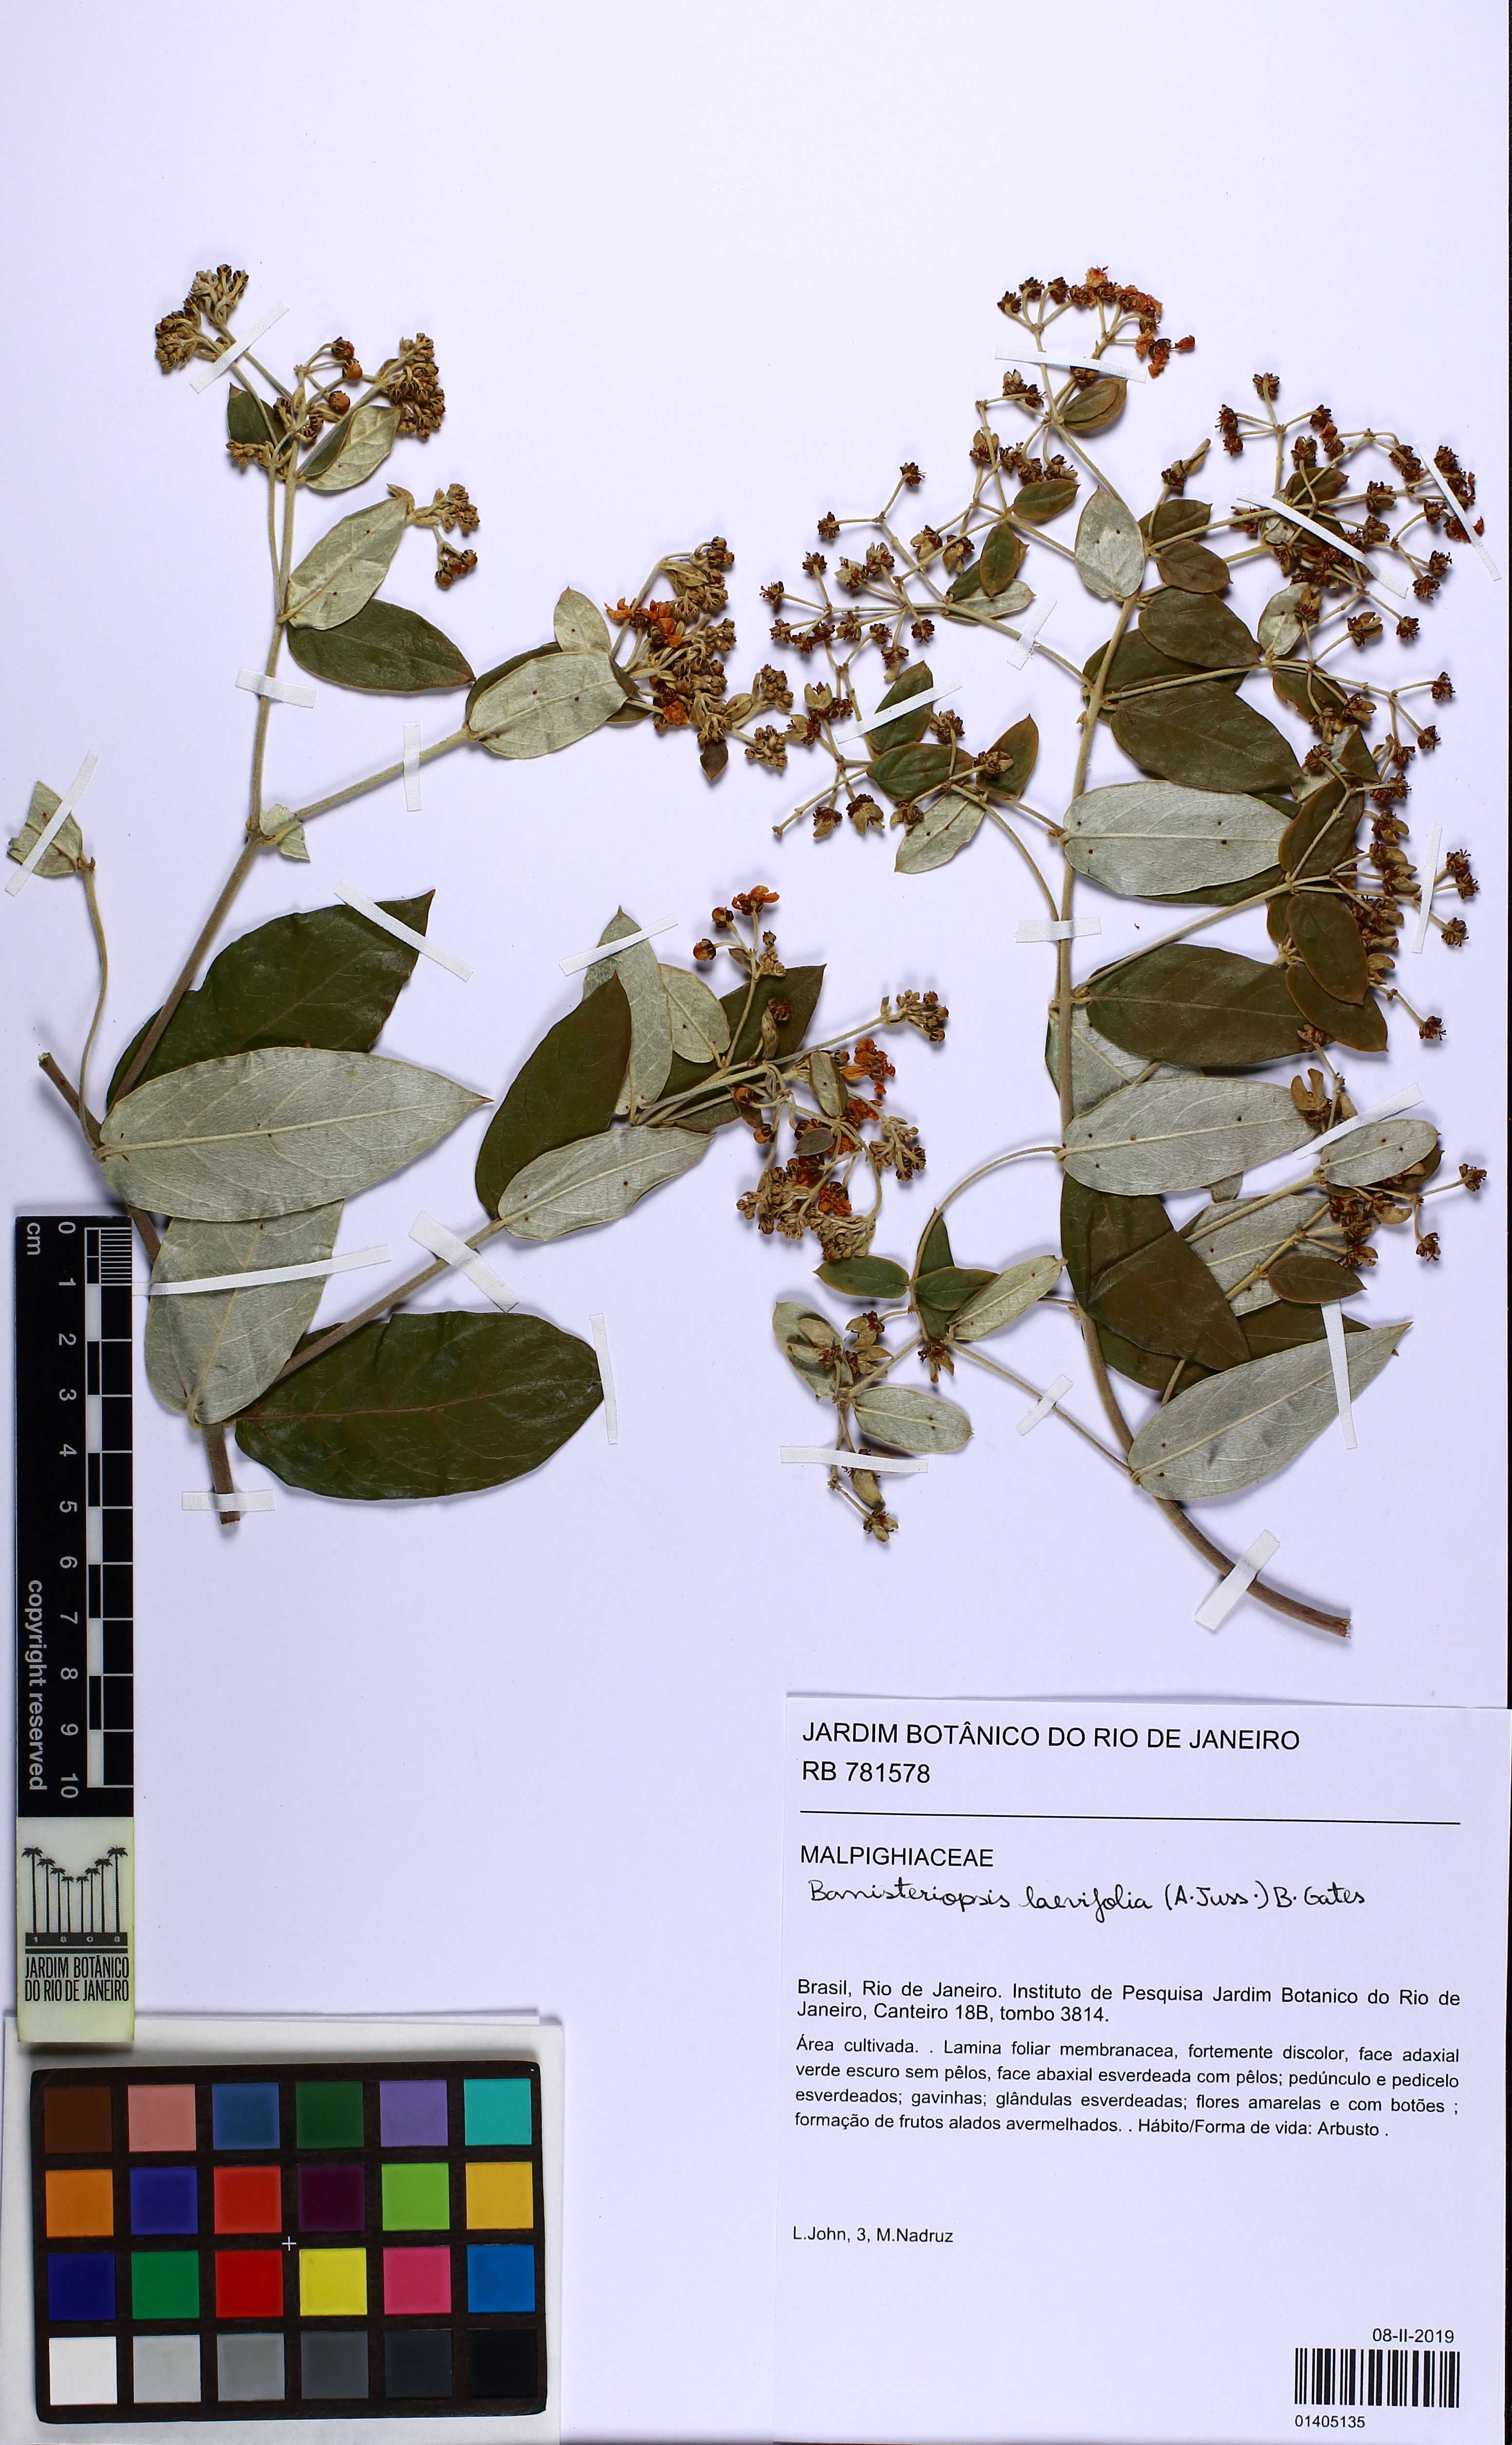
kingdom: Plantae
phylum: Tracheophyta
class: Magnoliopsida
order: Malpighiales
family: Malpighiaceae
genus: Banisteriopsis
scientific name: Banisteriopsis laevifolia
